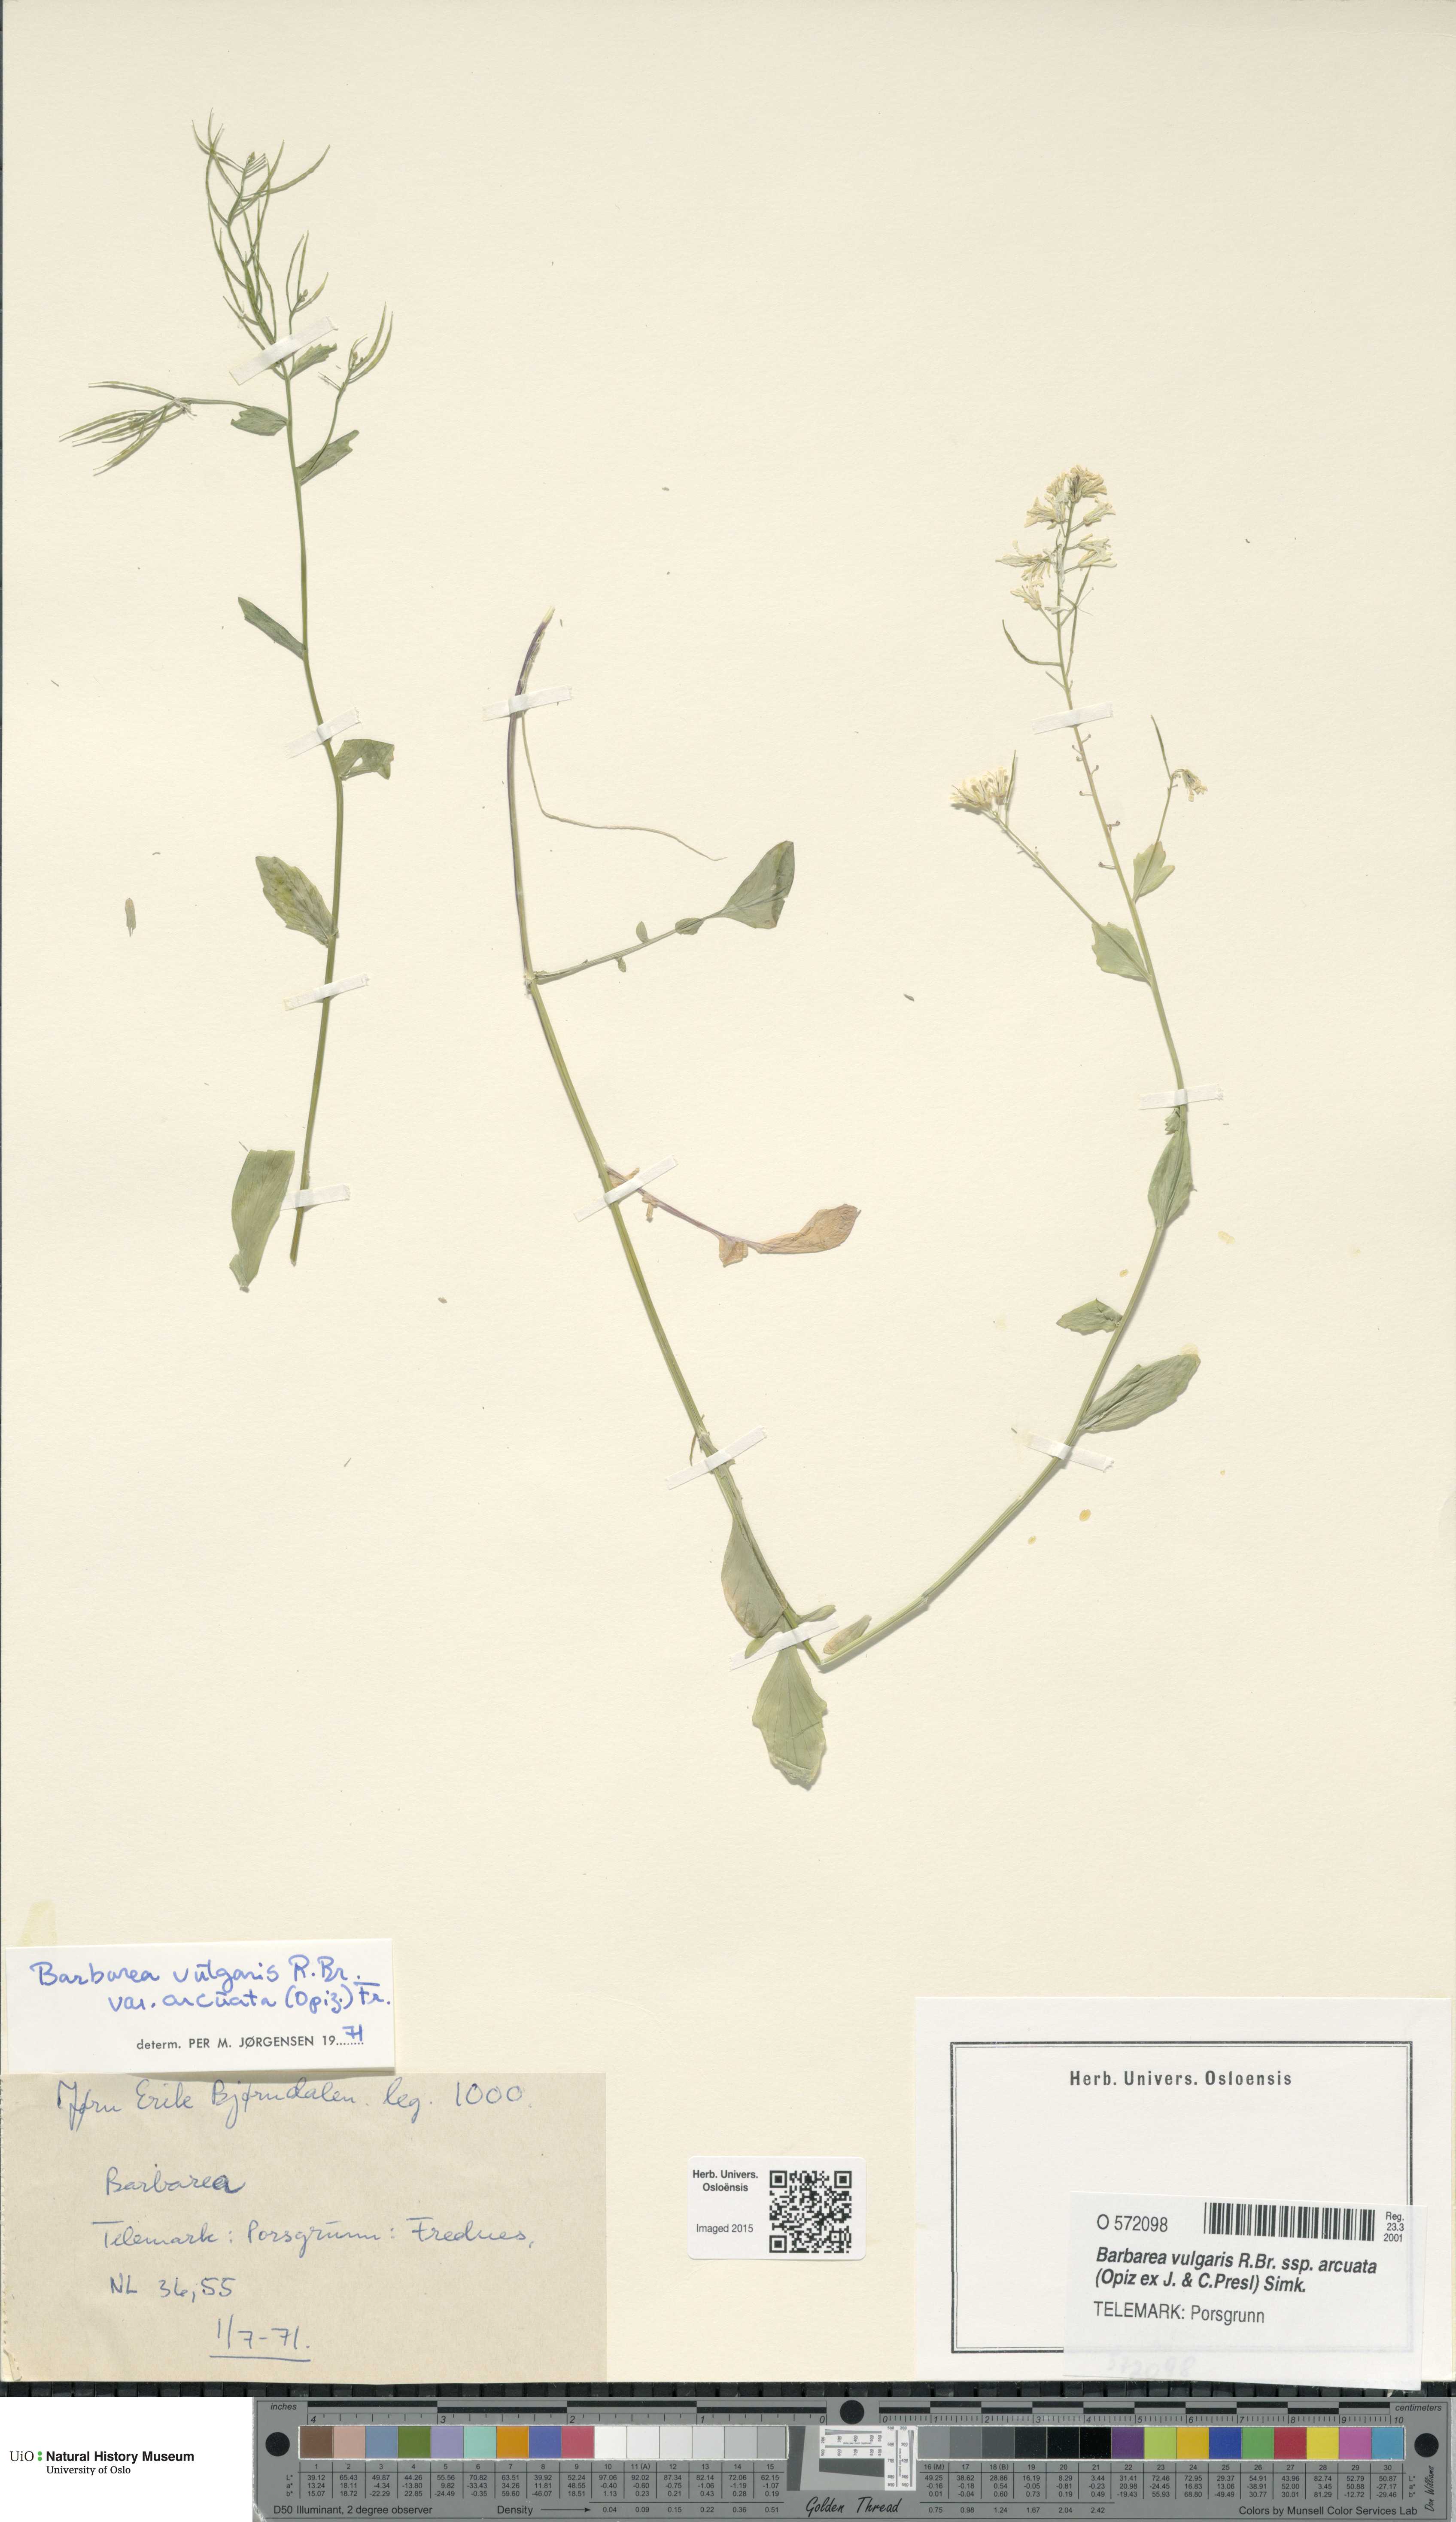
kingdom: Plantae
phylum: Tracheophyta
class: Magnoliopsida
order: Brassicales
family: Brassicaceae
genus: Barbarea
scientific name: Barbarea vulgaris
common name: Cressy-greens
